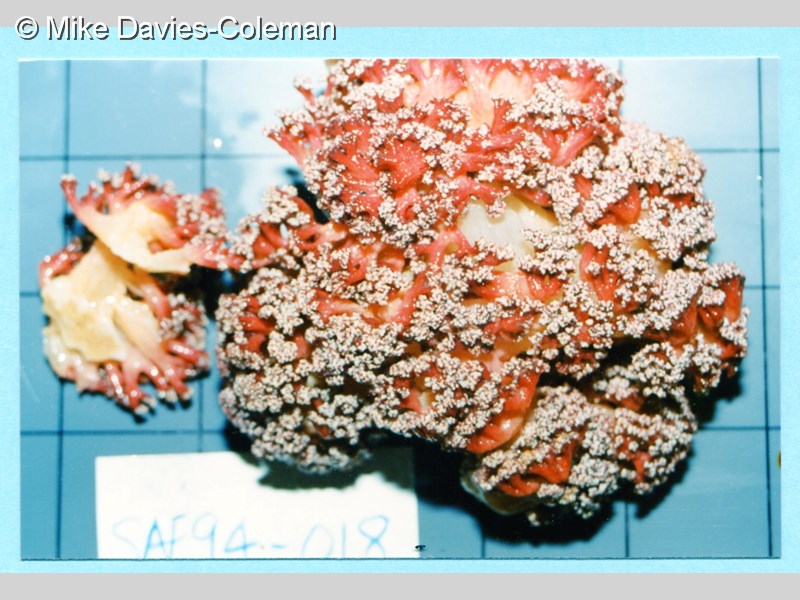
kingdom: Animalia
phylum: Cnidaria
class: Anthozoa
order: Malacalcyonacea
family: Nephtheidae
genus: Dendronephthya
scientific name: Dendronephthya
